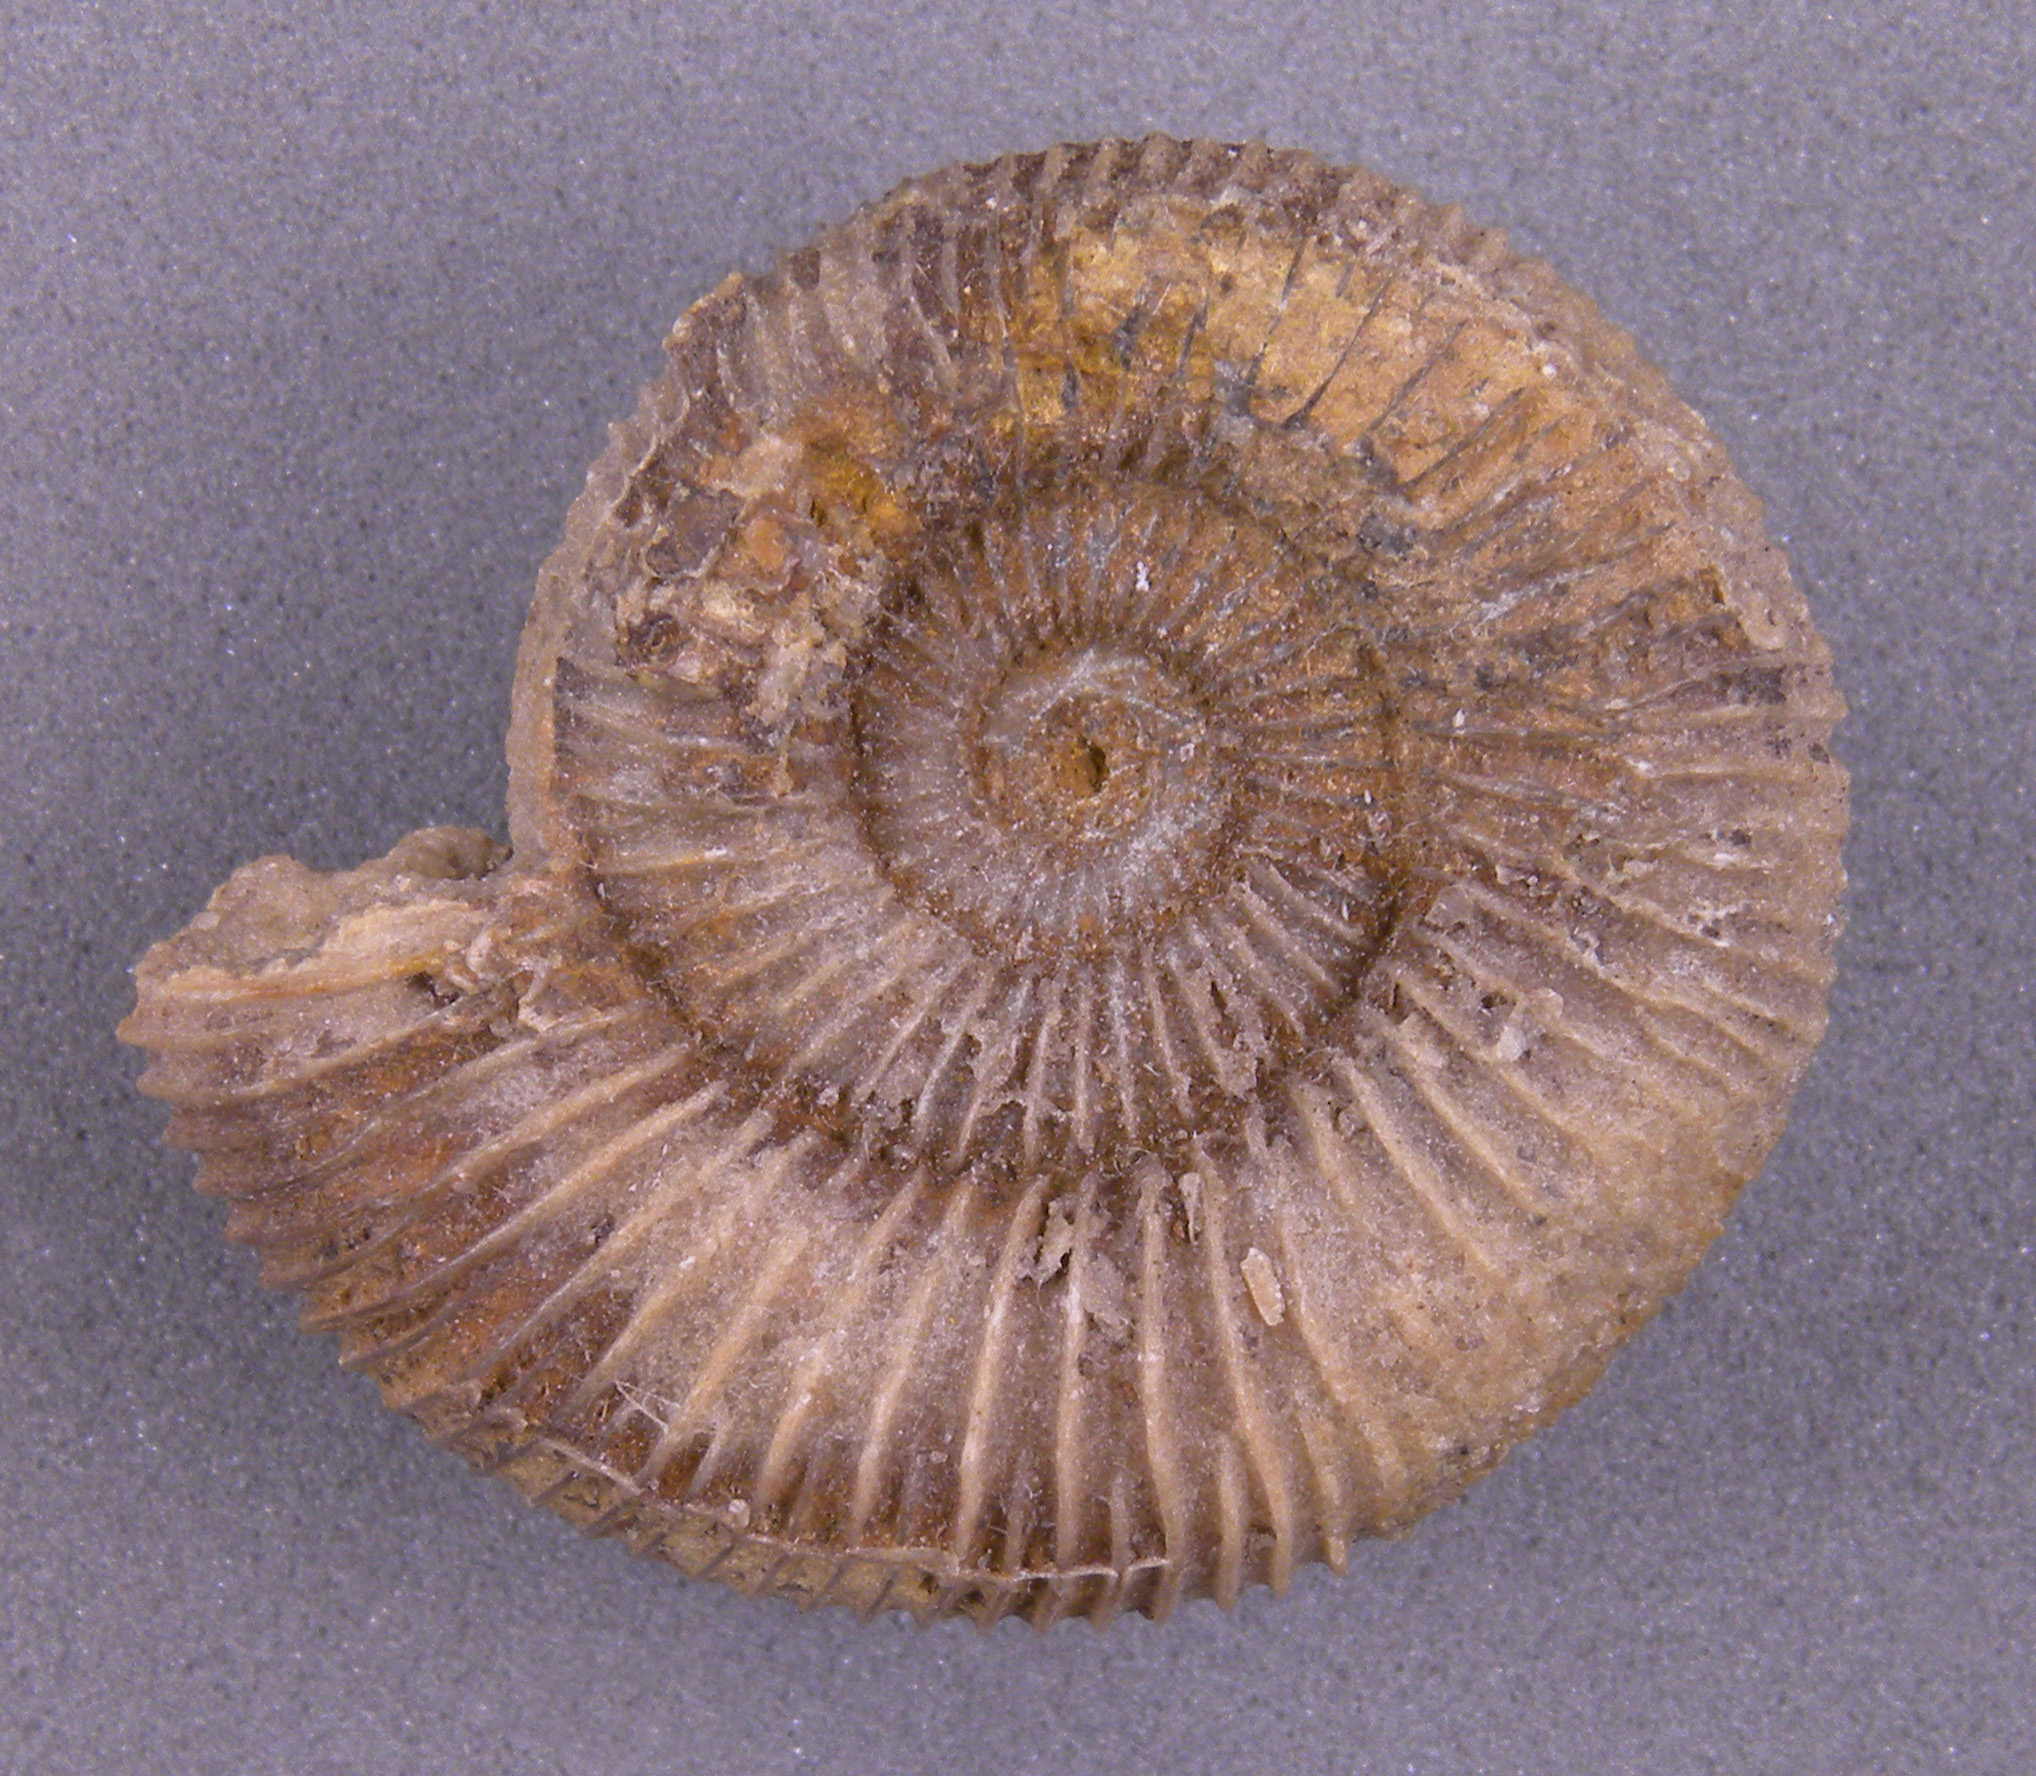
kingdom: Animalia
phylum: Mollusca
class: Cephalopoda
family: Dactylioceratidae
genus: Dactylioceras
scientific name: Dactylioceras
